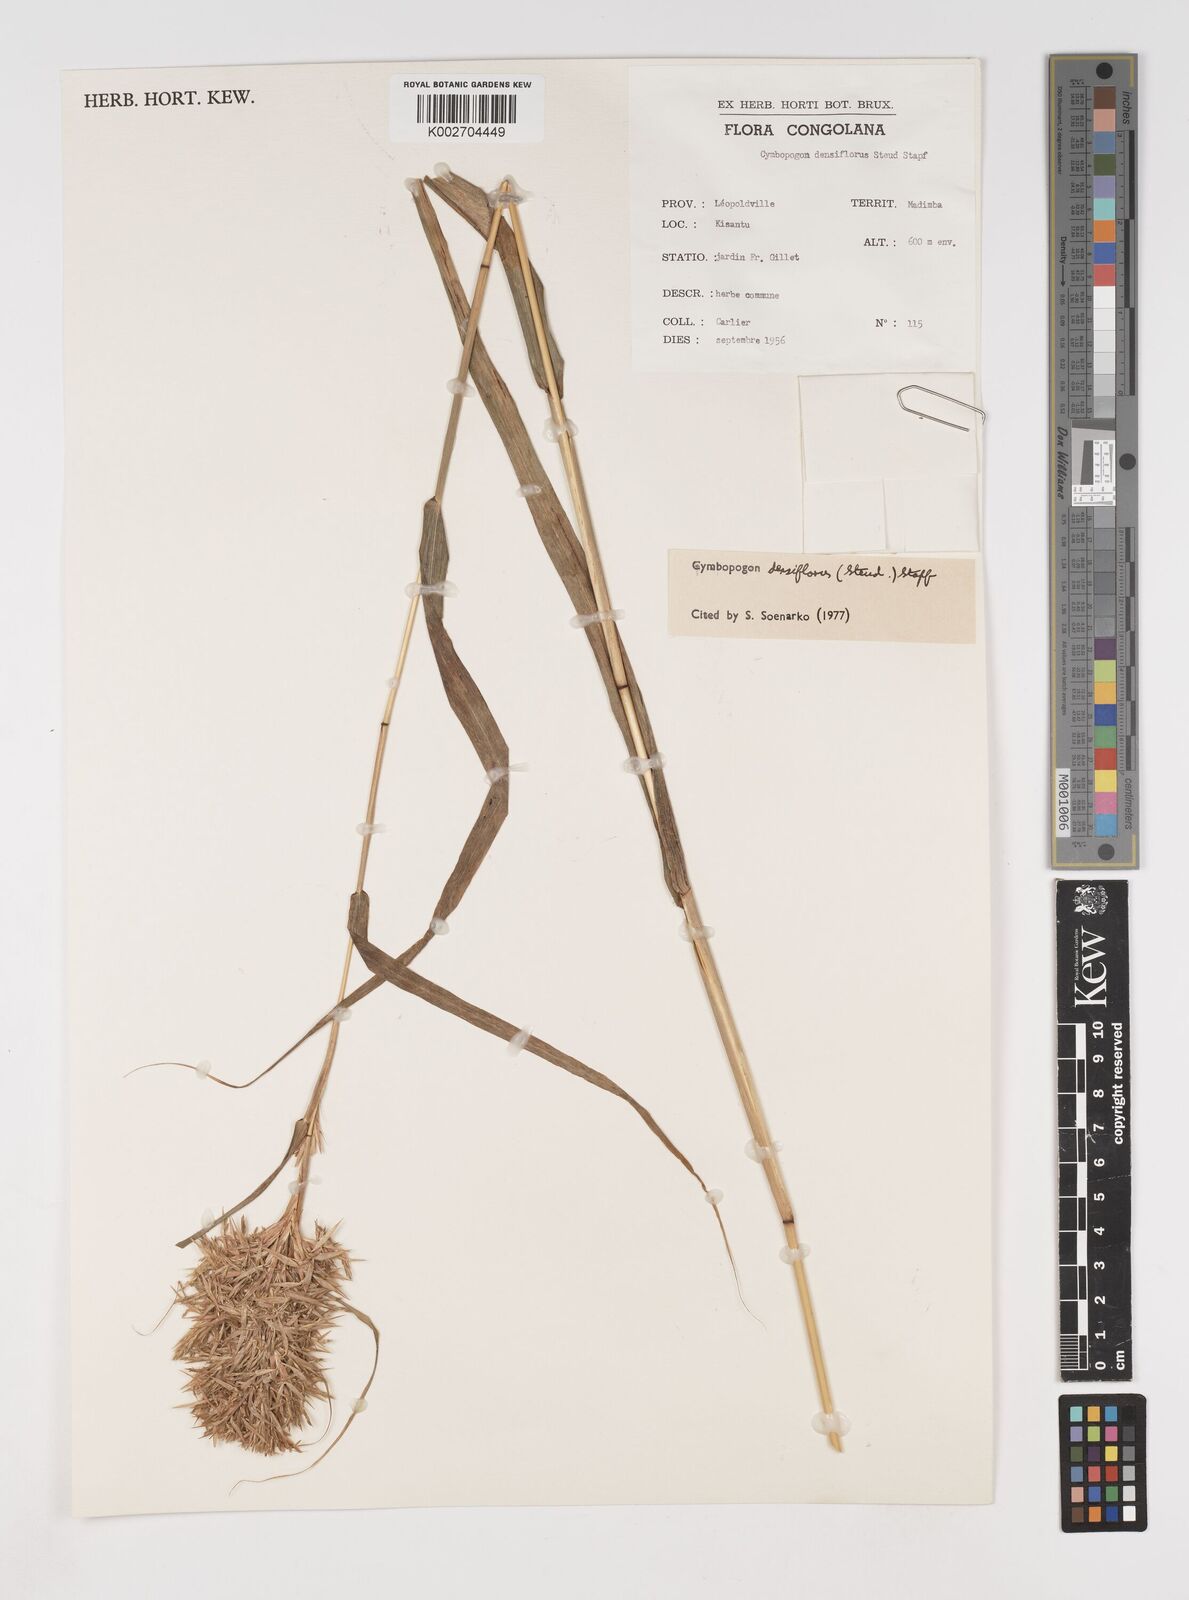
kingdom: Plantae
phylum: Tracheophyta
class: Liliopsida
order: Poales
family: Poaceae
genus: Cymbopogon
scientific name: Cymbopogon densiflorus
